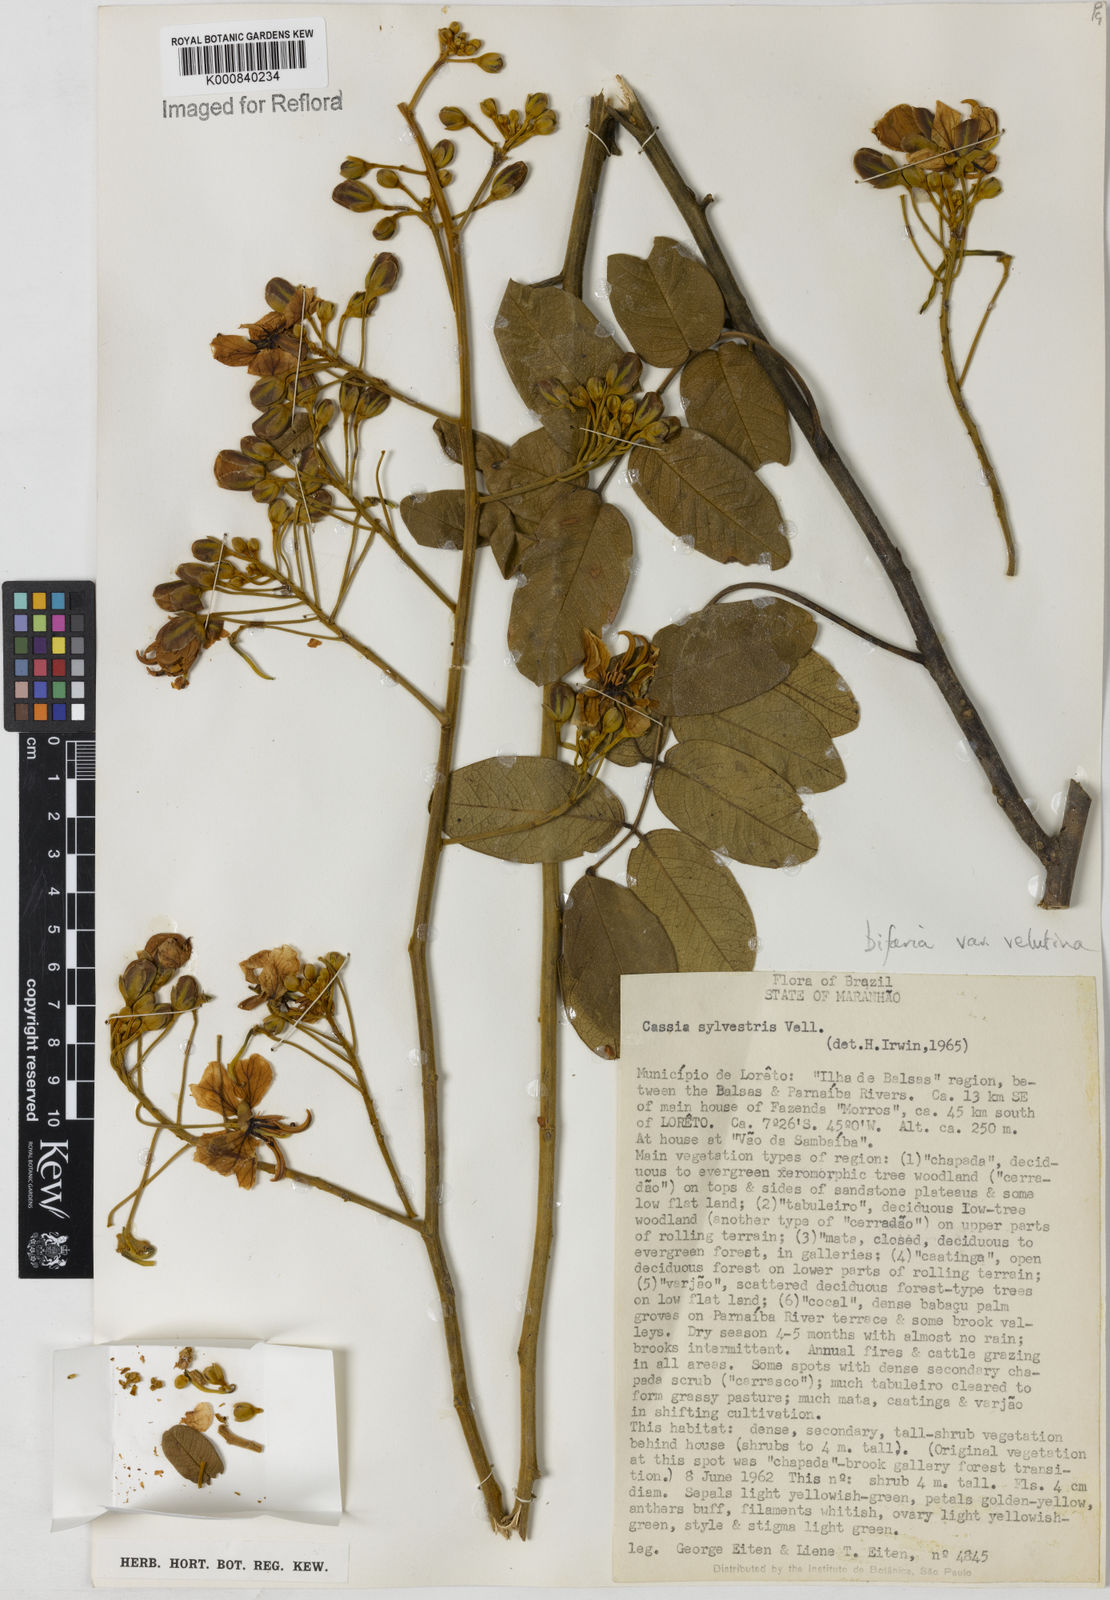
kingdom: Plantae
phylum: Tracheophyta
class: Magnoliopsida
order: Fabales
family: Fabaceae
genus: Senna
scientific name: Senna silvestris
